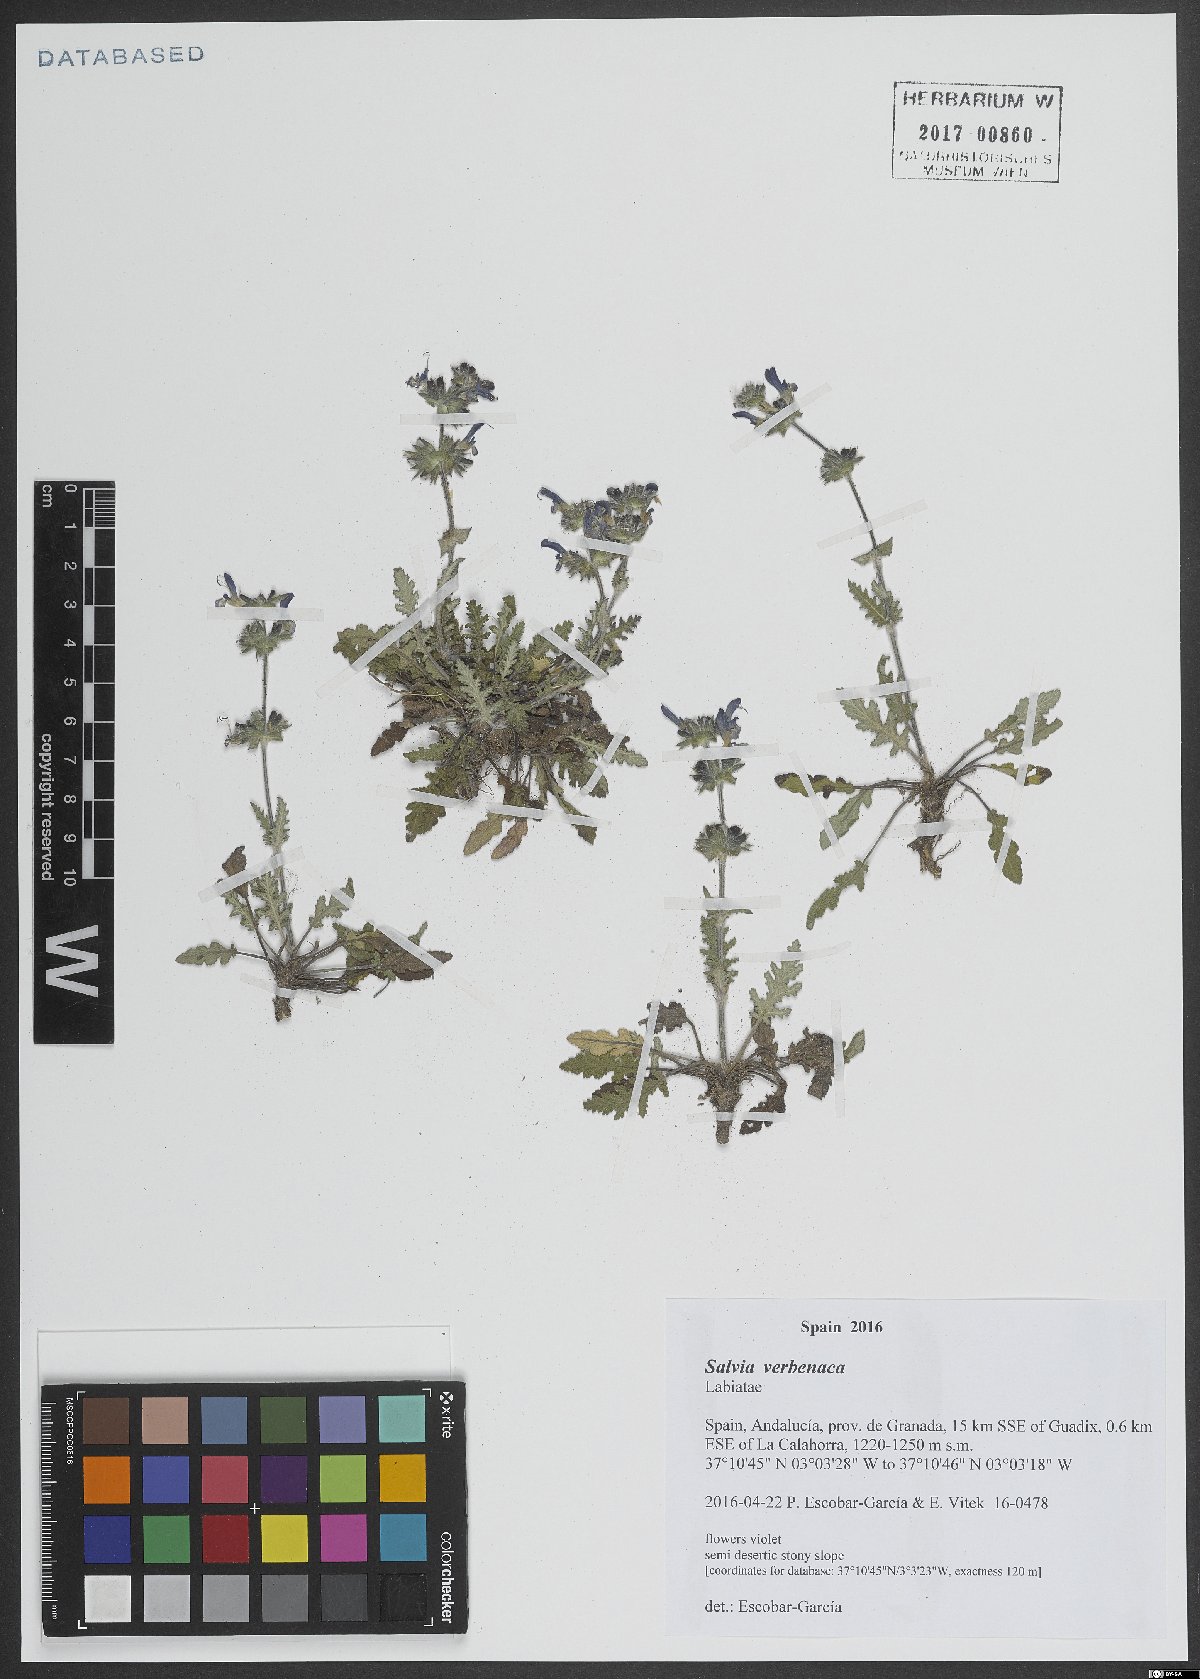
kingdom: Plantae
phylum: Tracheophyta
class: Magnoliopsida
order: Lamiales
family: Lamiaceae
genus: Salvia
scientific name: Salvia verbenaca
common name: Wild clary
